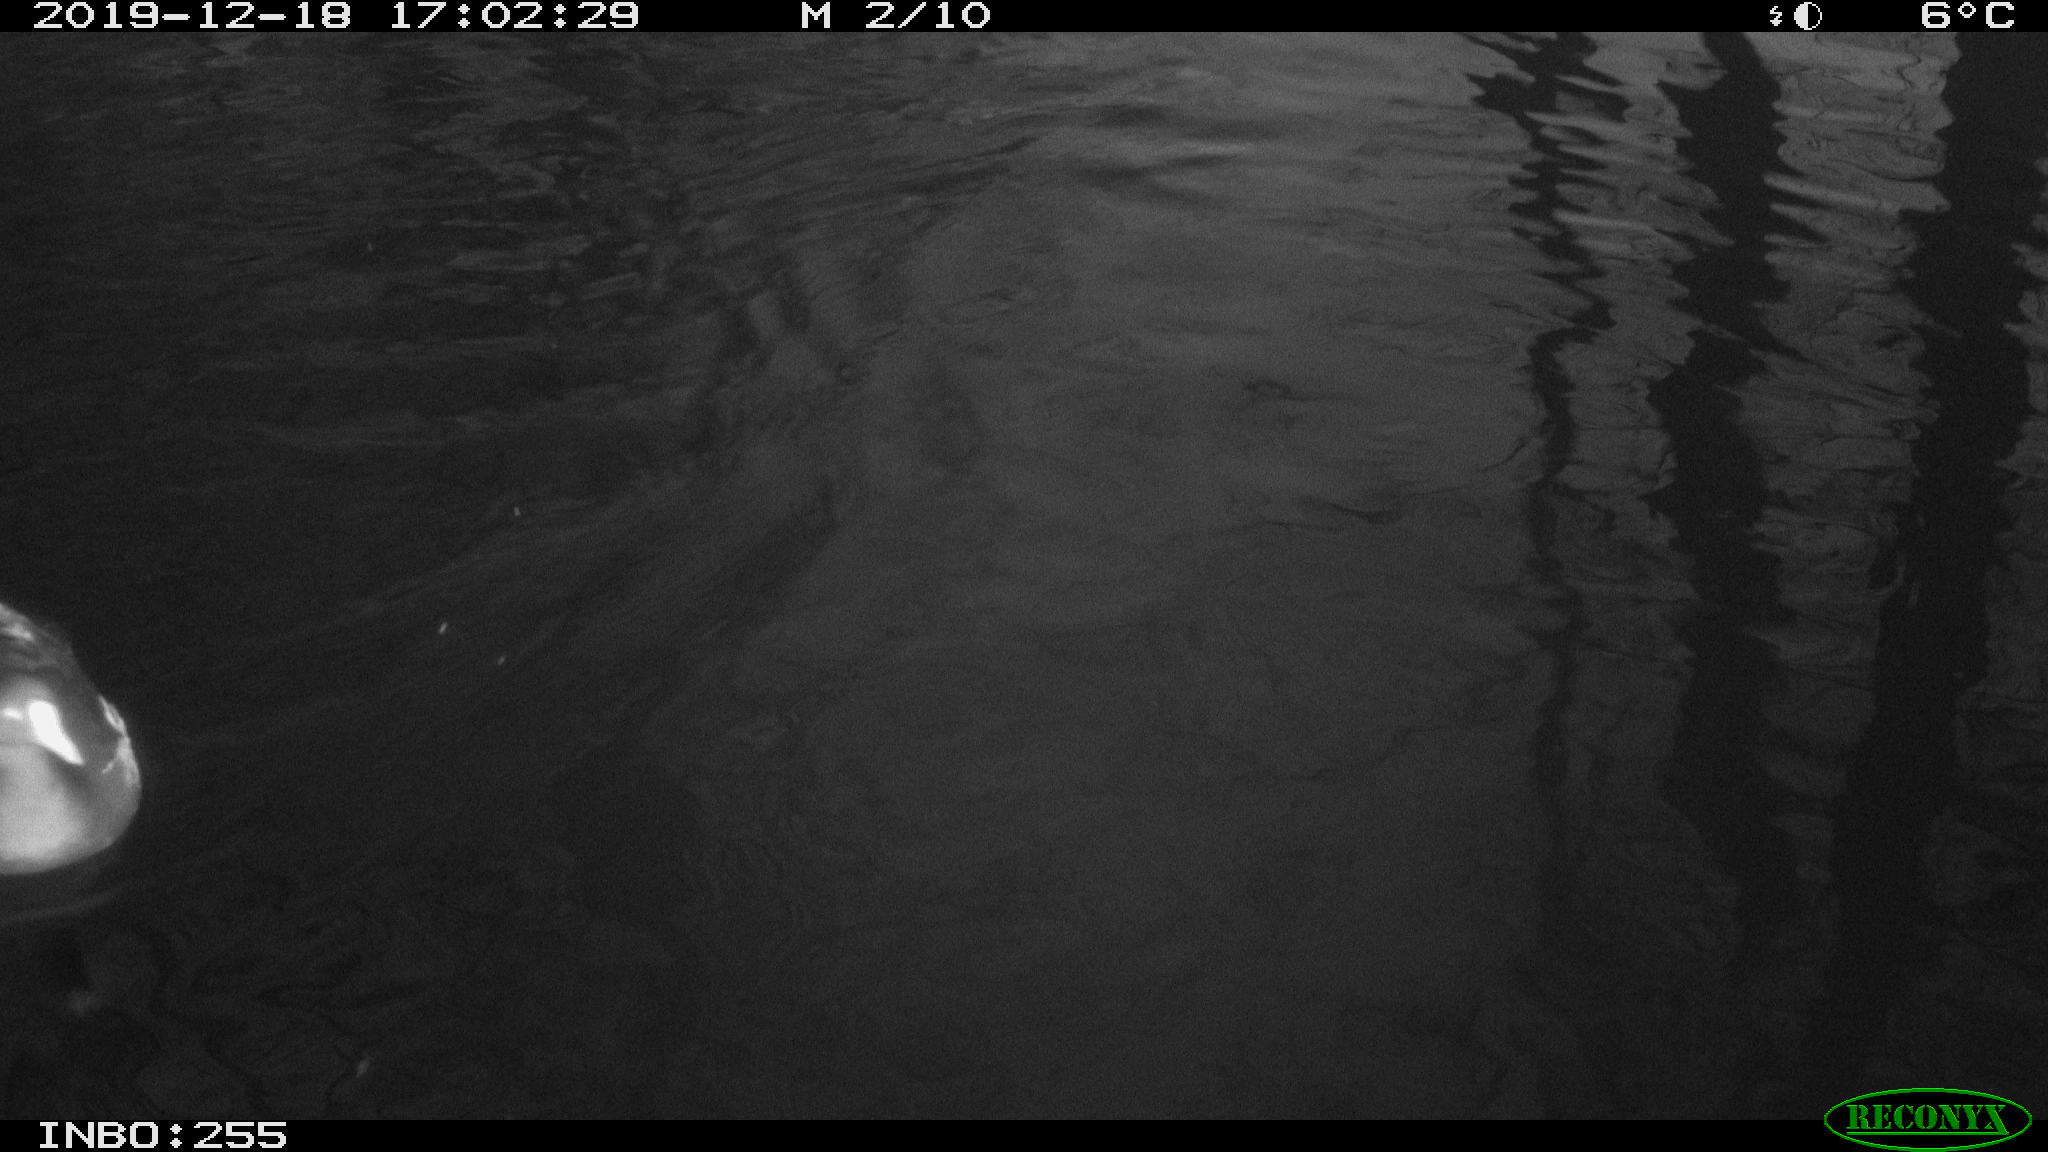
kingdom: Animalia
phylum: Chordata
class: Aves
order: Gruiformes
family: Rallidae
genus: Gallinula
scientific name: Gallinula chloropus
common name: Common moorhen
